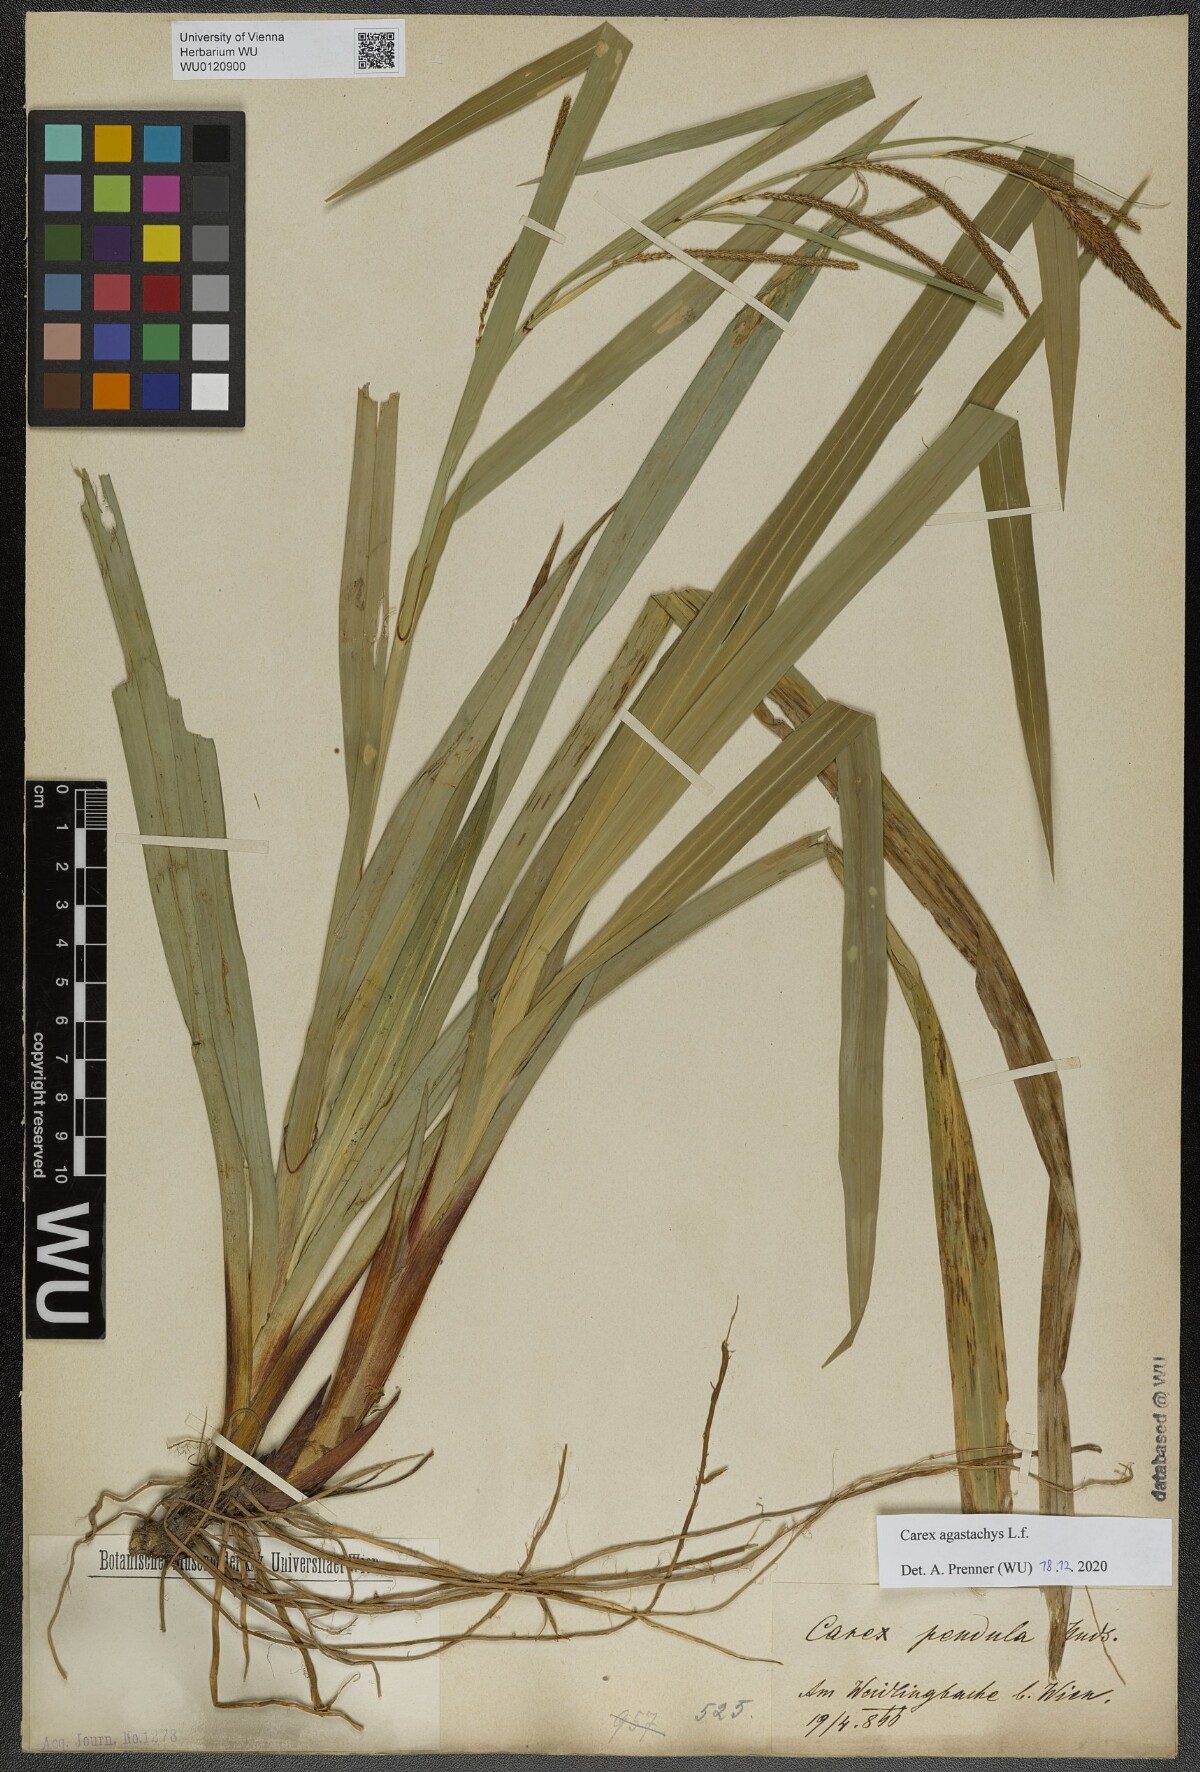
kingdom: Plantae
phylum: Tracheophyta
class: Liliopsida
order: Poales
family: Cyperaceae
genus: Carex
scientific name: Carex agastachys
